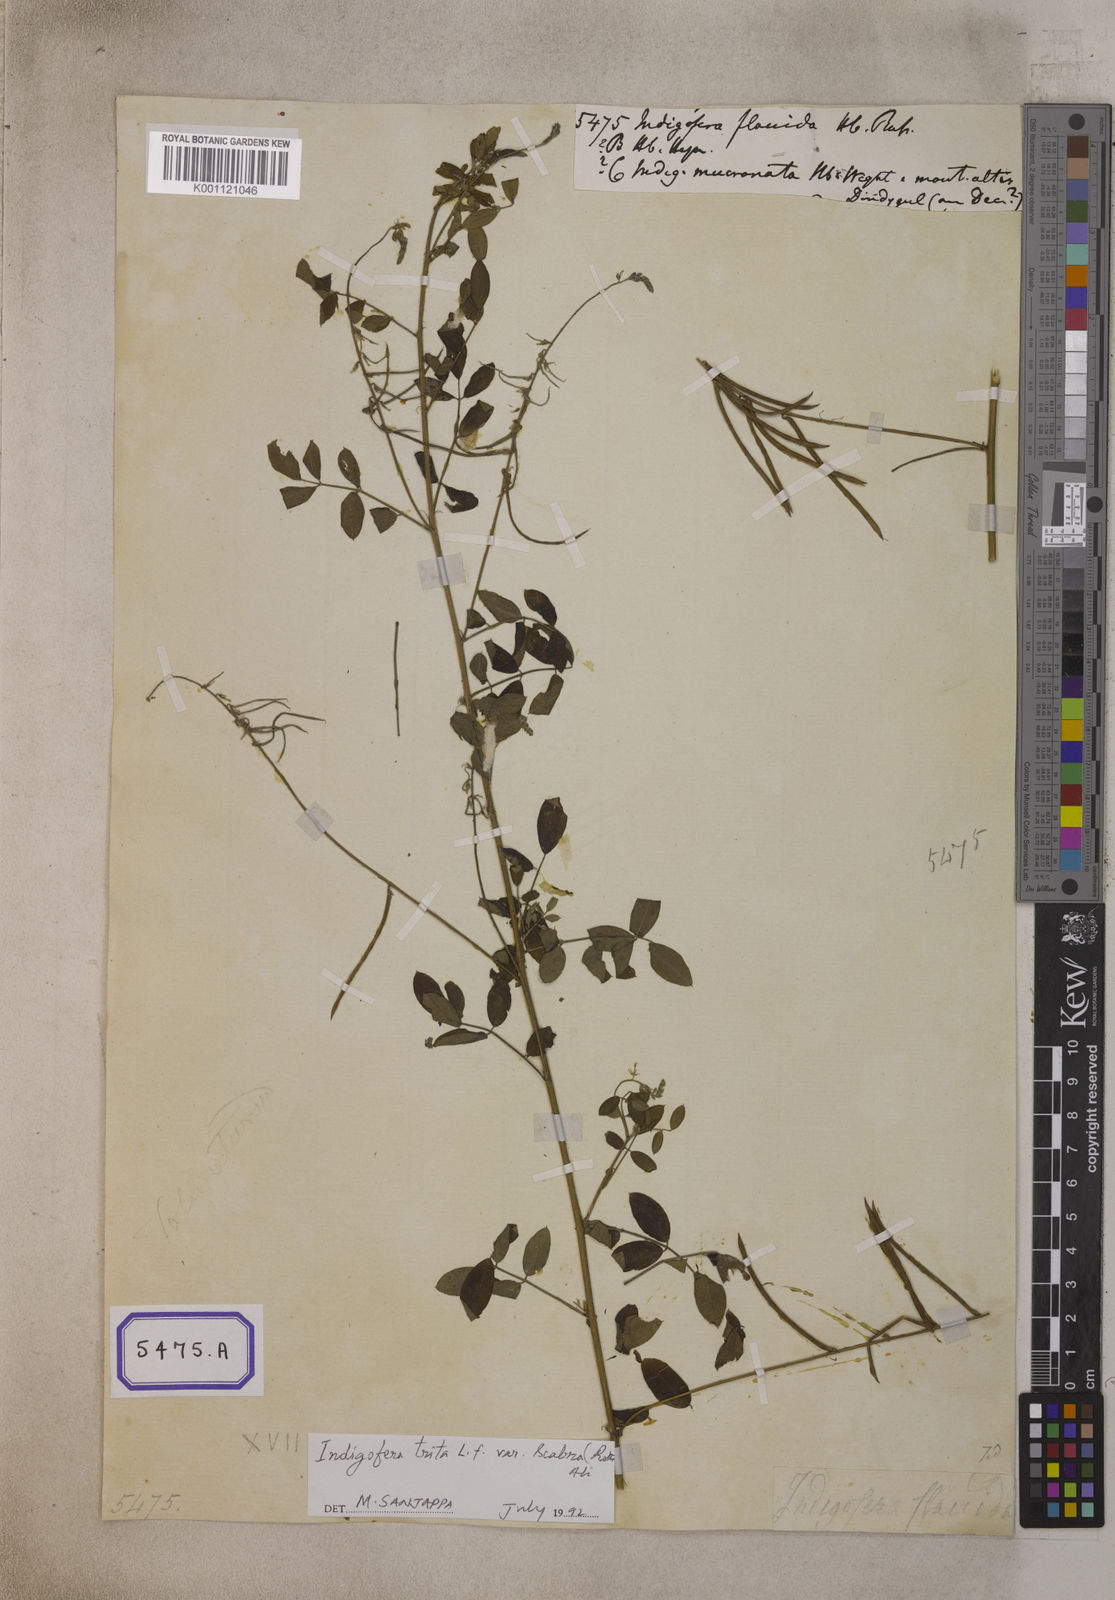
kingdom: Plantae
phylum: Tracheophyta
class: Magnoliopsida
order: Fabales
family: Fabaceae
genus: Indigofera
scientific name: Indigofera subulata
